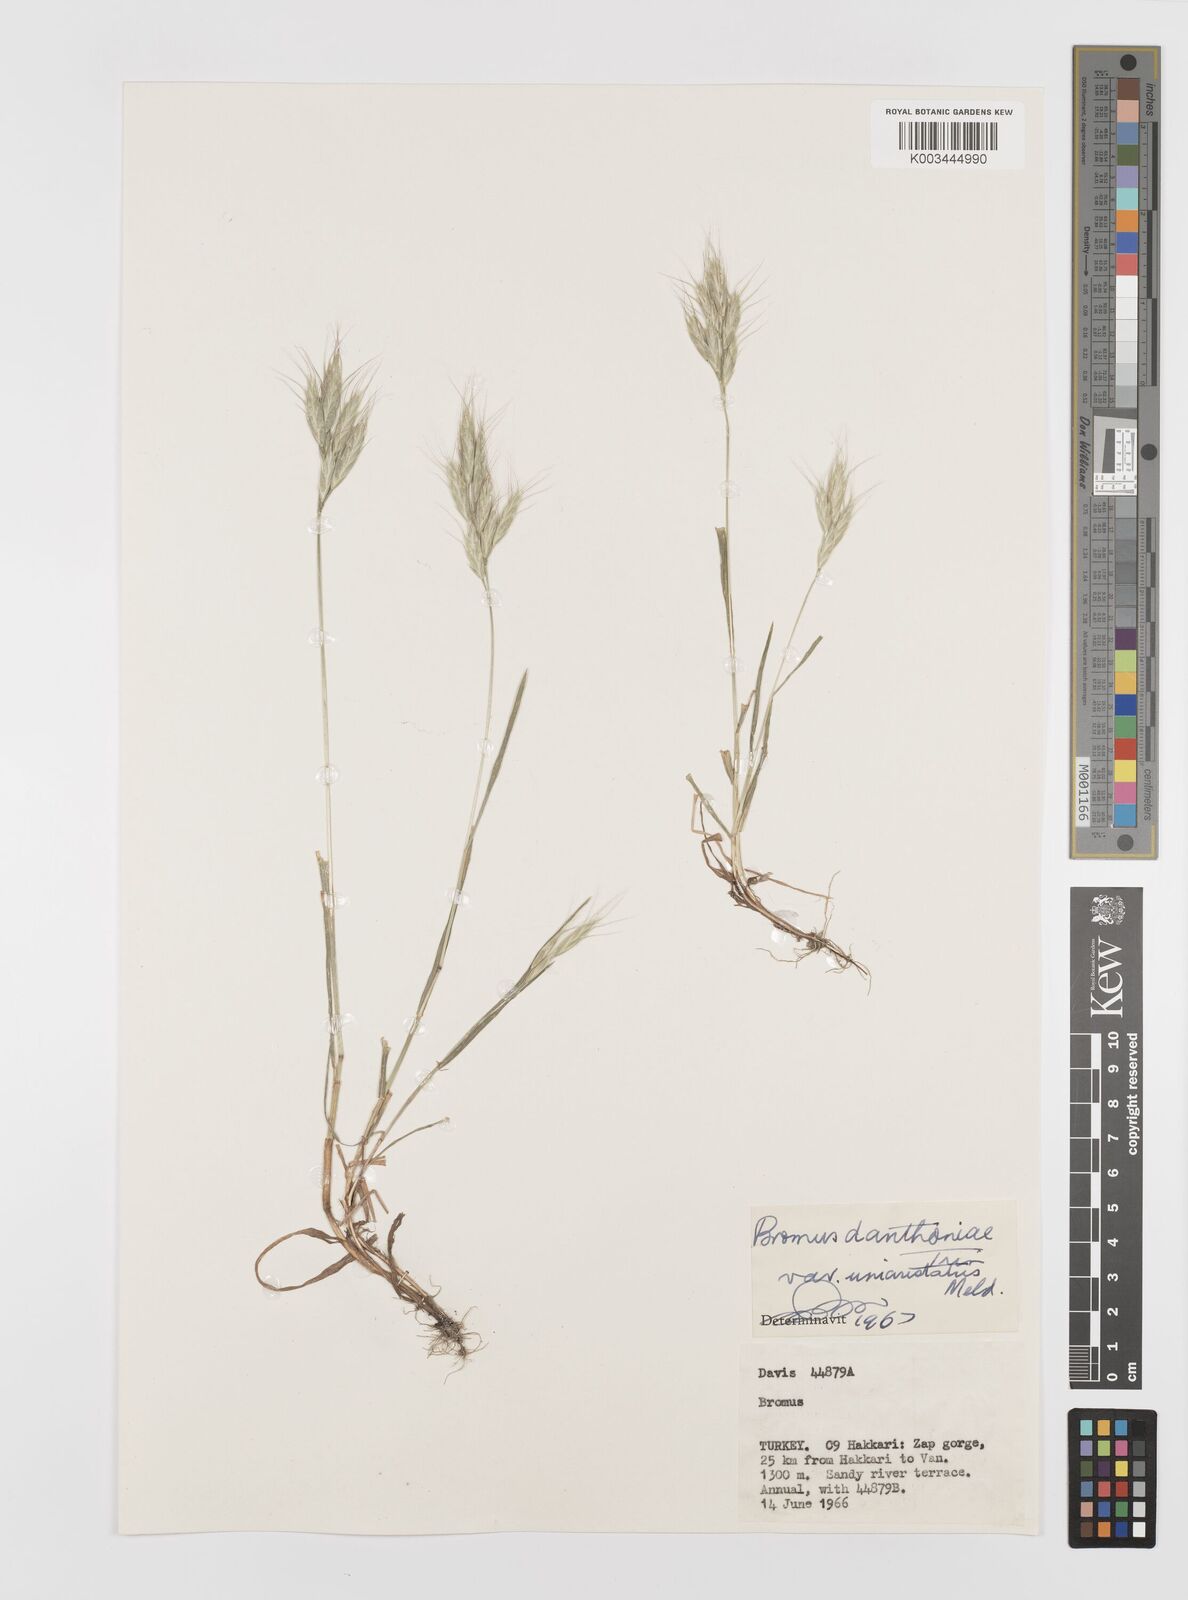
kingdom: Plantae
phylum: Tracheophyta
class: Liliopsida
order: Poales
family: Poaceae
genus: Bromus
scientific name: Bromus danthoniae
